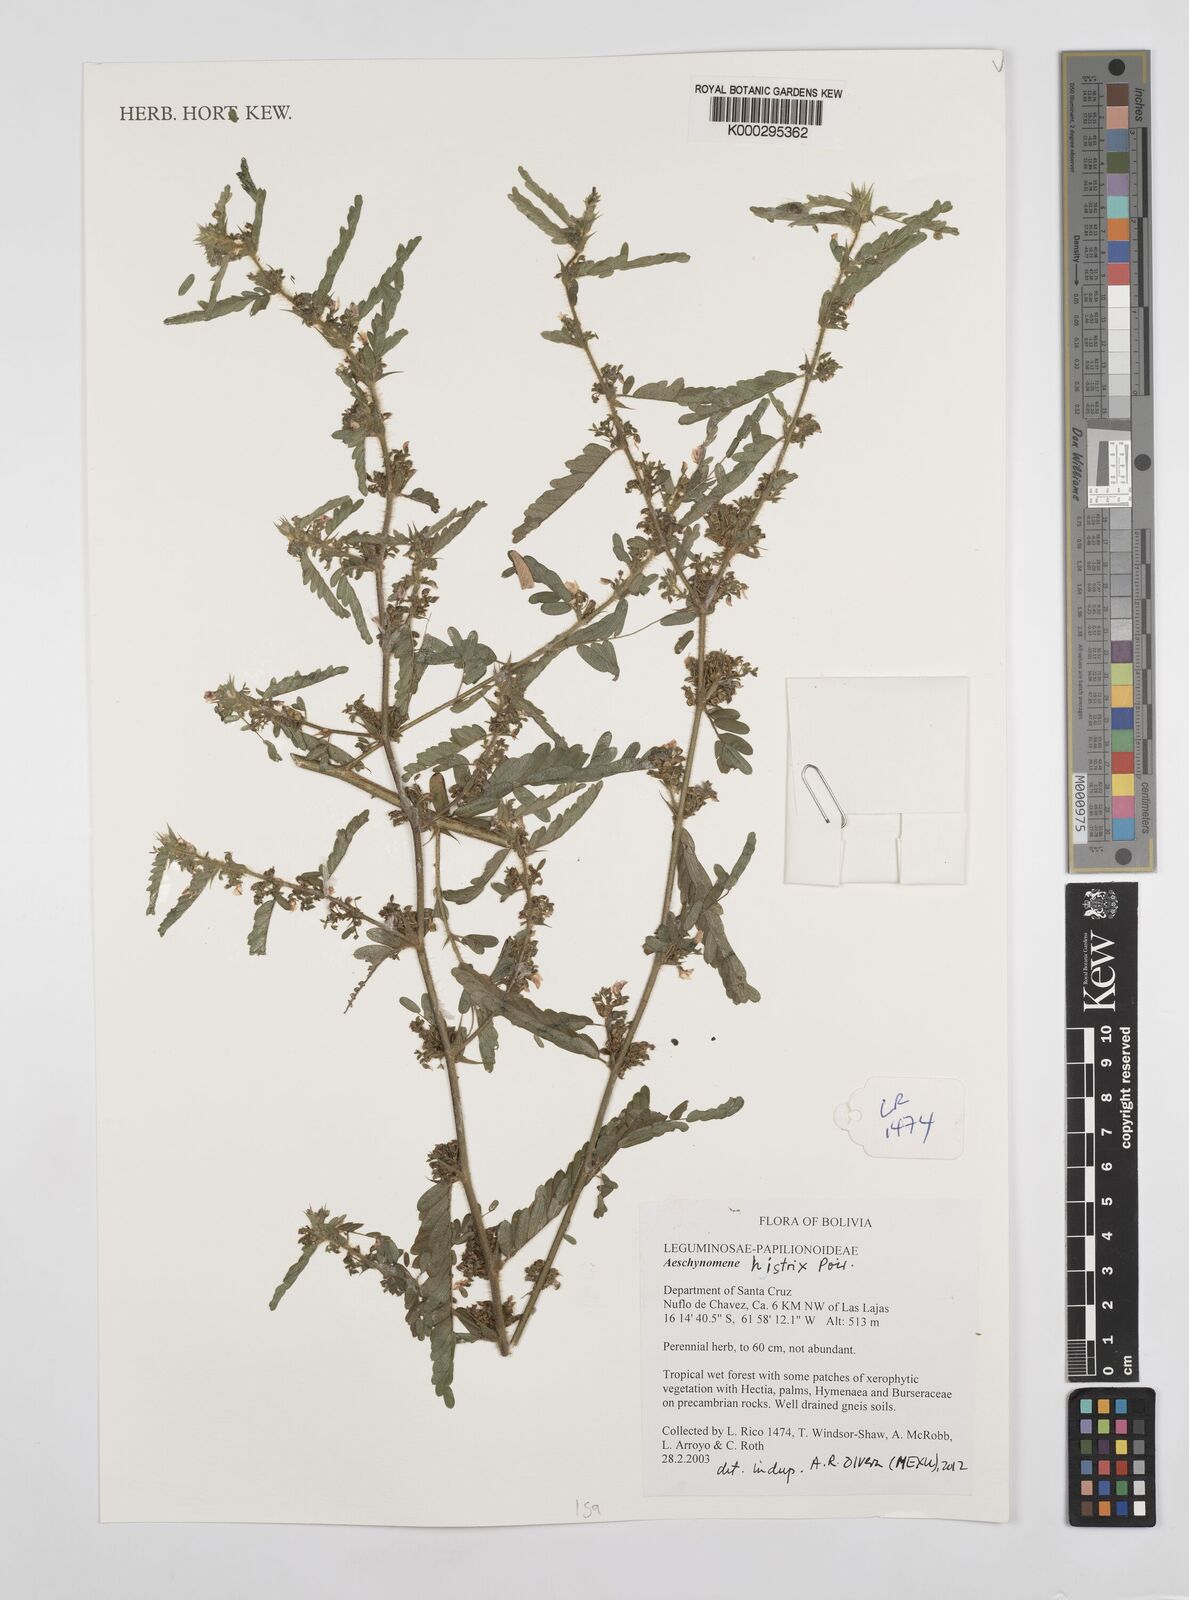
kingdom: Plantae
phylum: Tracheophyta
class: Magnoliopsida
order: Fabales
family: Fabaceae
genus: Ctenodon
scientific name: Ctenodon histrix
